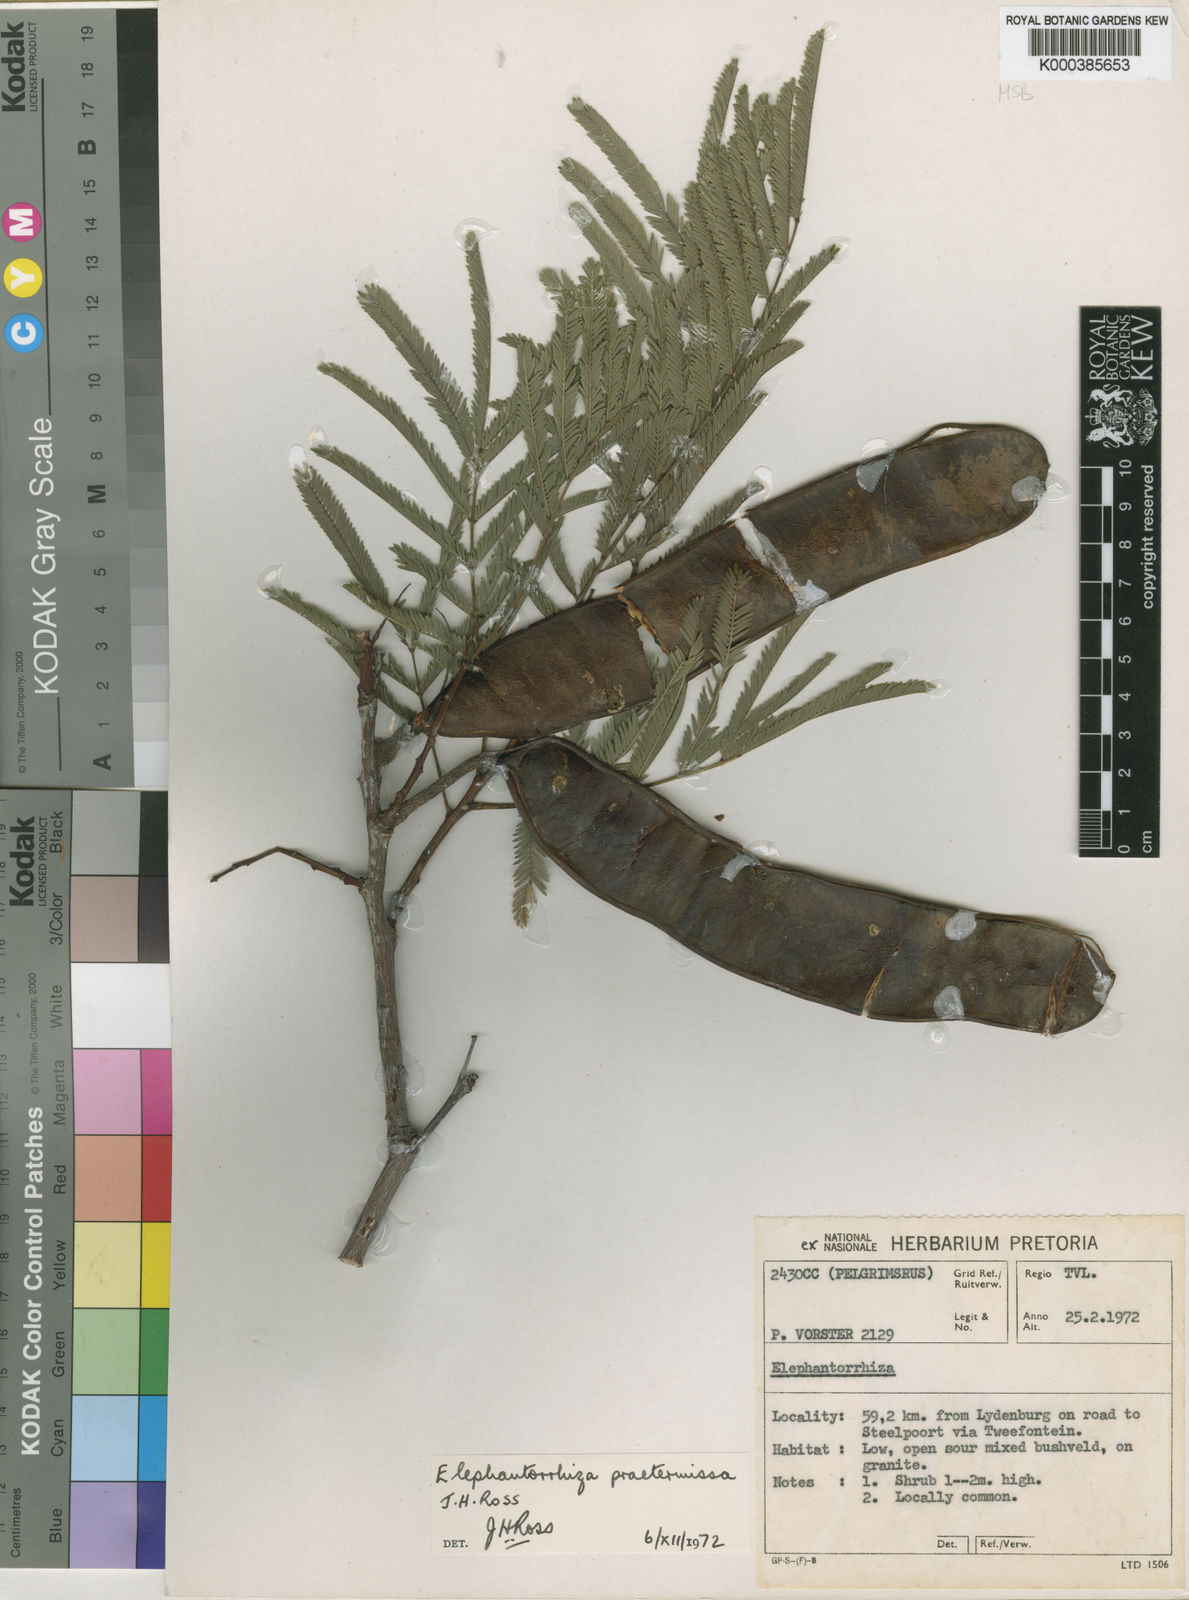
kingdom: Plantae
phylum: Tracheophyta
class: Magnoliopsida
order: Fabales
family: Fabaceae
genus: Elephantorrhiza
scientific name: Elephantorrhiza praetermissa
